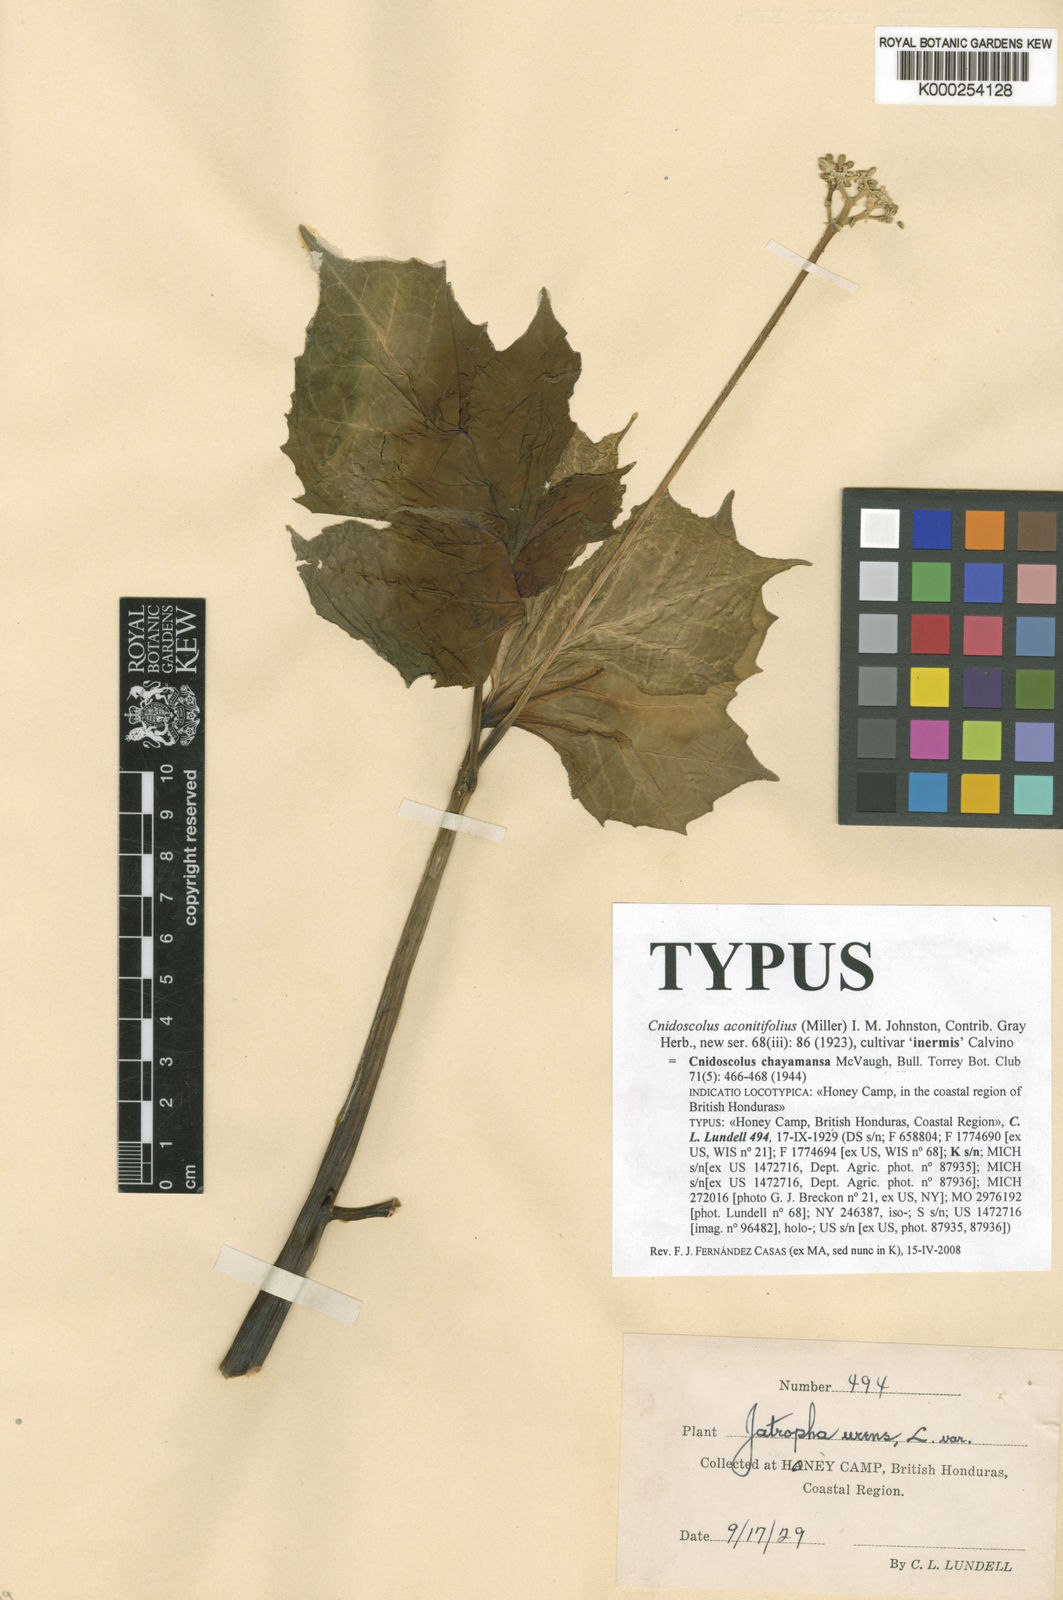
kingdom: Plantae
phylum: Tracheophyta
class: Magnoliopsida
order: Malpighiales
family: Euphorbiaceae
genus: Cnidoscolus
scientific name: Cnidoscolus aconitifolius
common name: Cabbage-star
